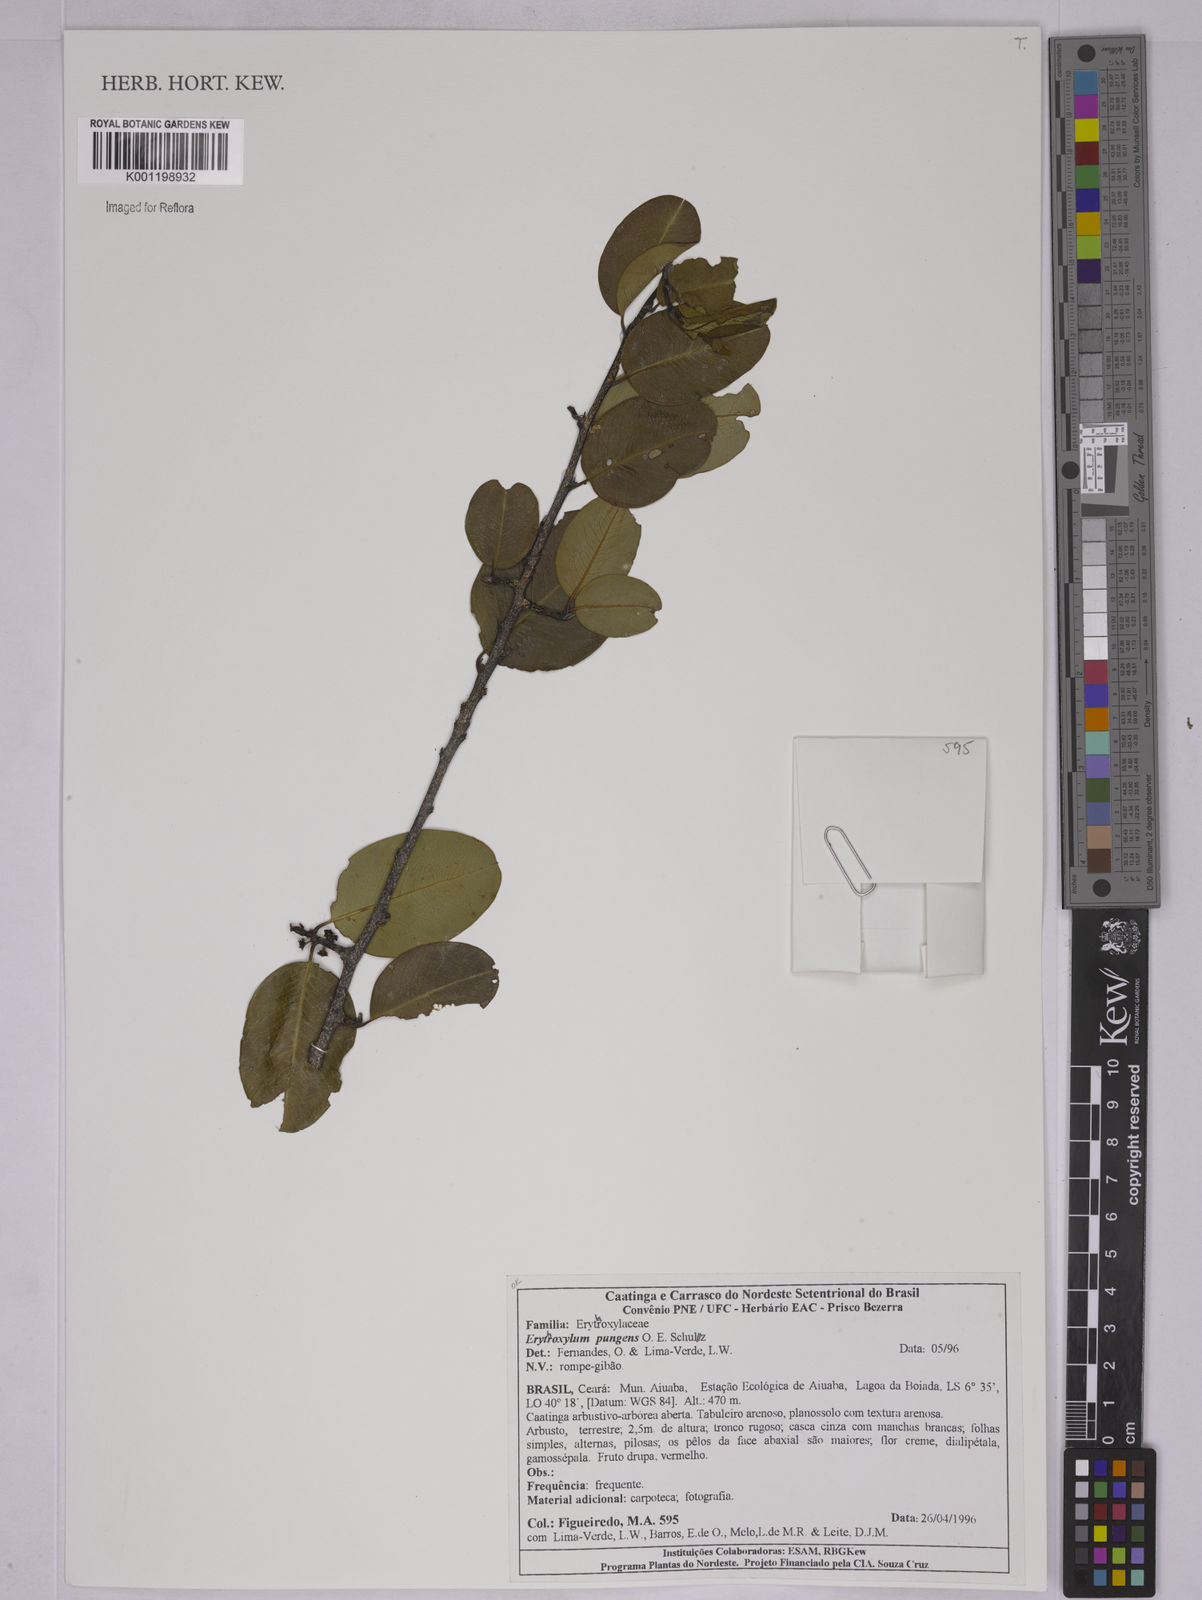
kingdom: Plantae
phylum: Tracheophyta
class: Magnoliopsida
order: Malpighiales
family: Erythroxylaceae
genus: Erythroxylum
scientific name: Erythroxylum pungens
